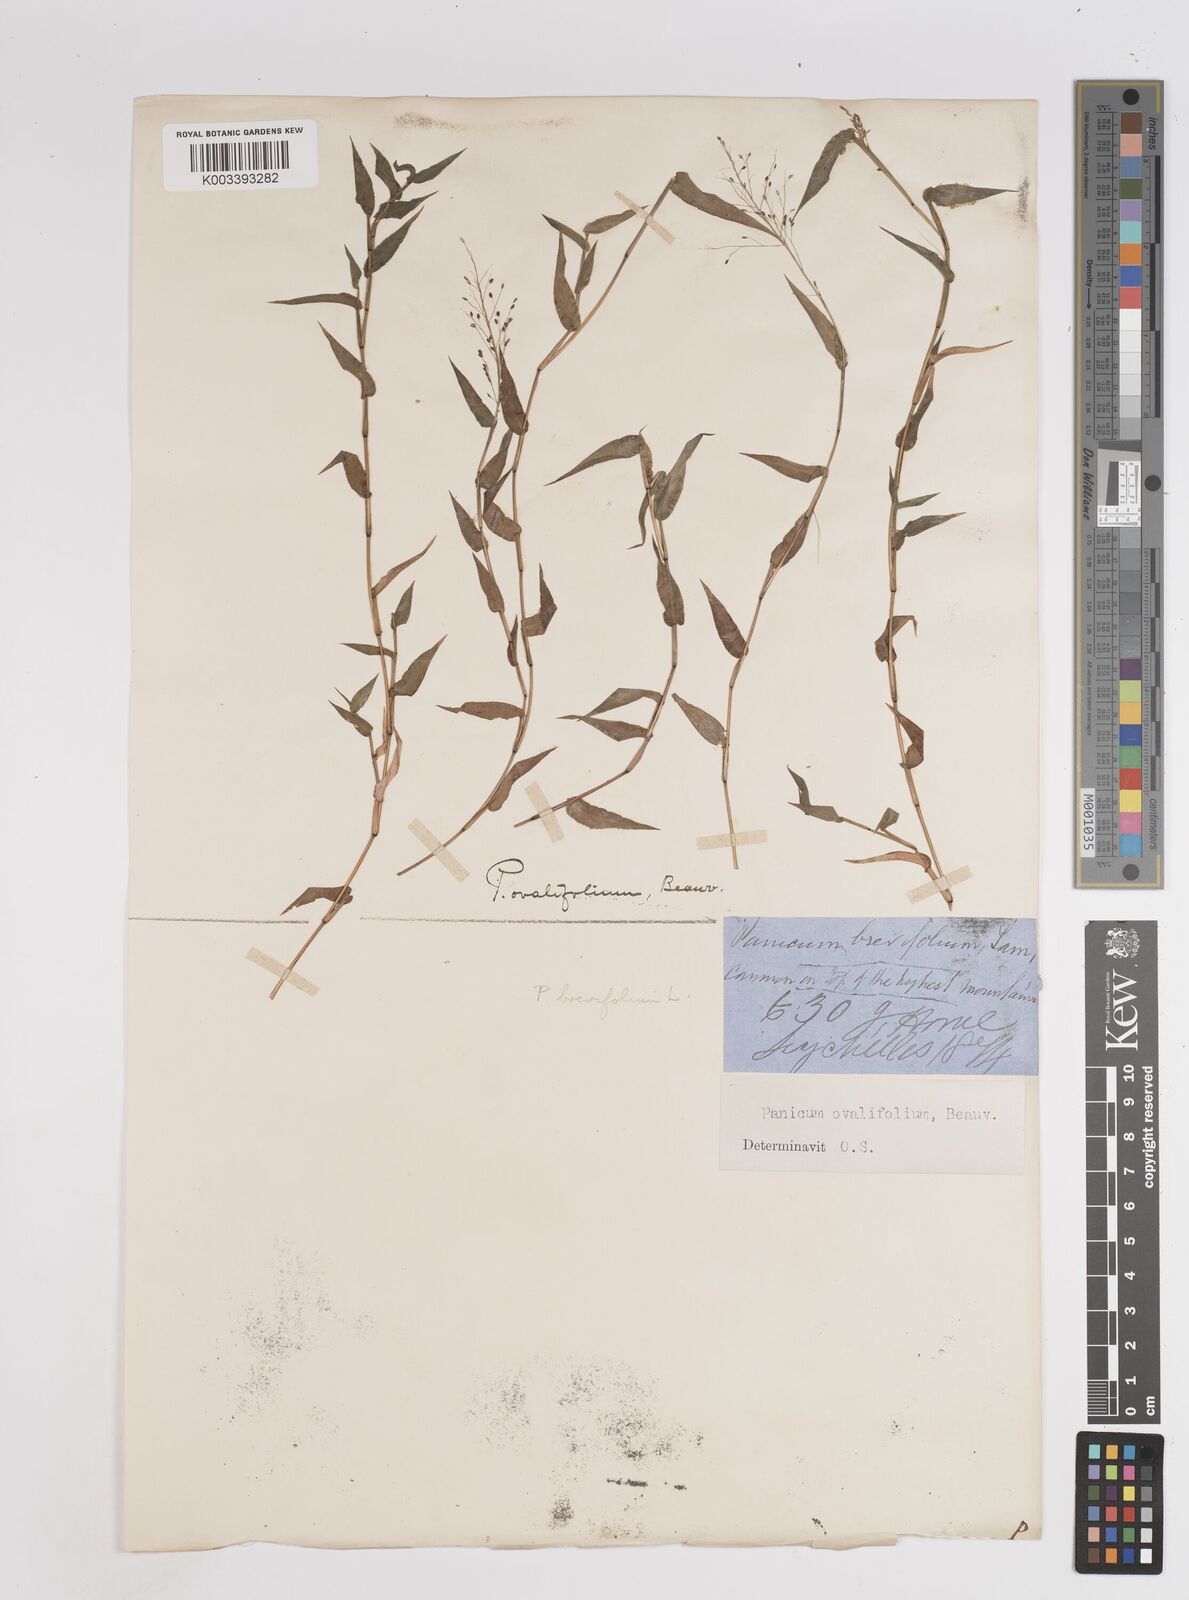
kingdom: Plantae
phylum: Tracheophyta
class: Liliopsida
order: Poales
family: Poaceae
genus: Panicum
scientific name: Panicum brevifolium
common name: Shortleaf panic grass
